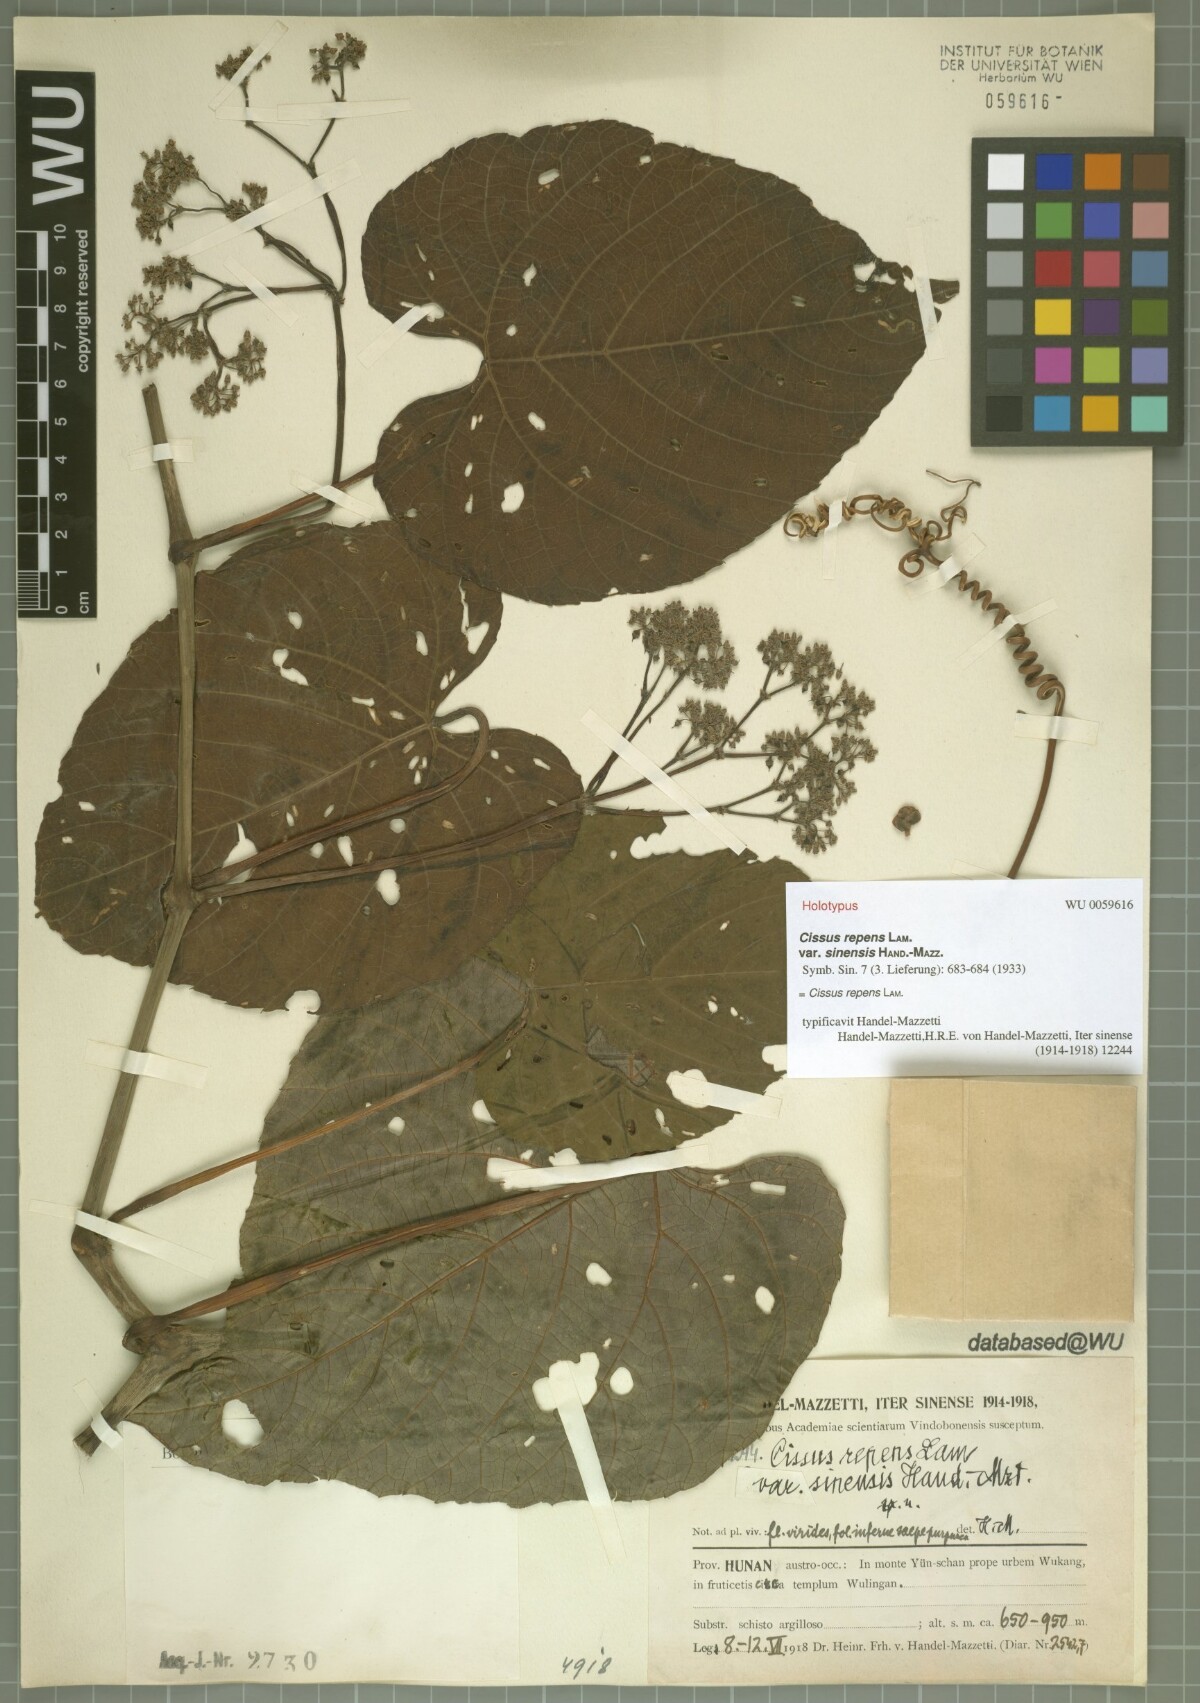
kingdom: Plantae
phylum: Tracheophyta
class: Magnoliopsida
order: Vitales
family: Vitaceae
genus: Cissus
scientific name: Cissus repens
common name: Cissus
